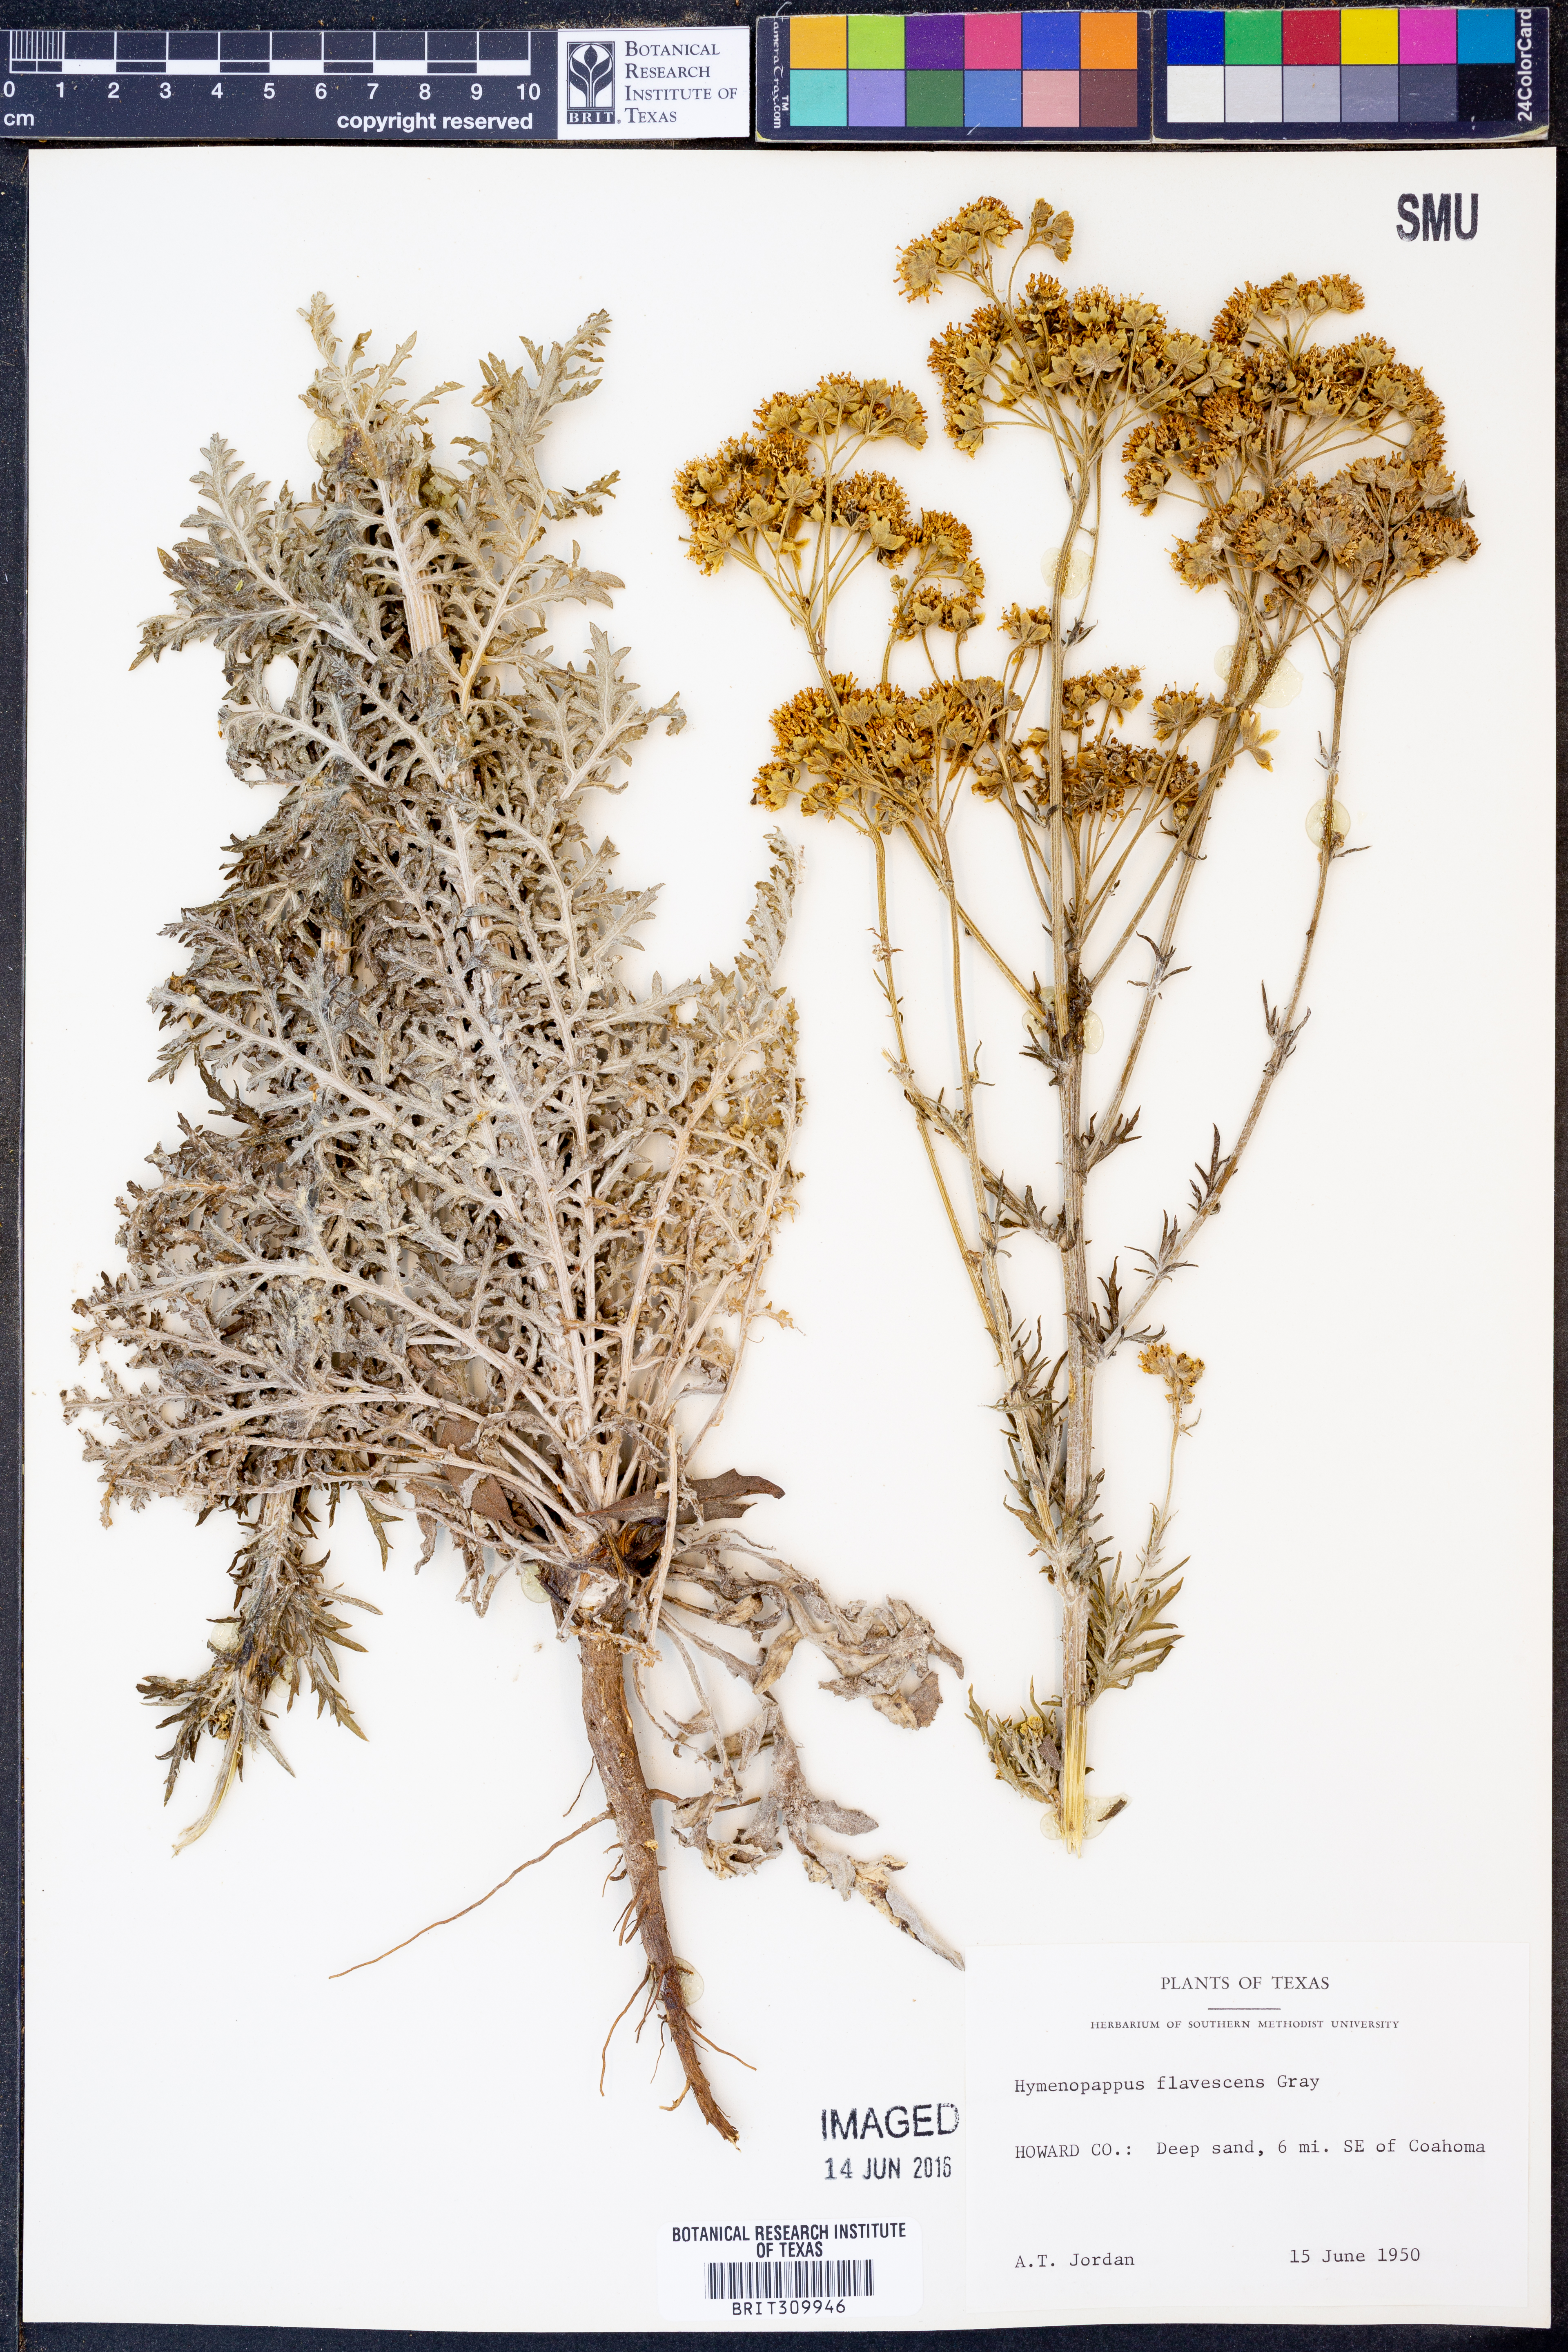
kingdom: Plantae
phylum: Tracheophyta
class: Magnoliopsida
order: Asterales
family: Asteraceae
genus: Hymenopappus
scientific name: Hymenopappus flavescens
